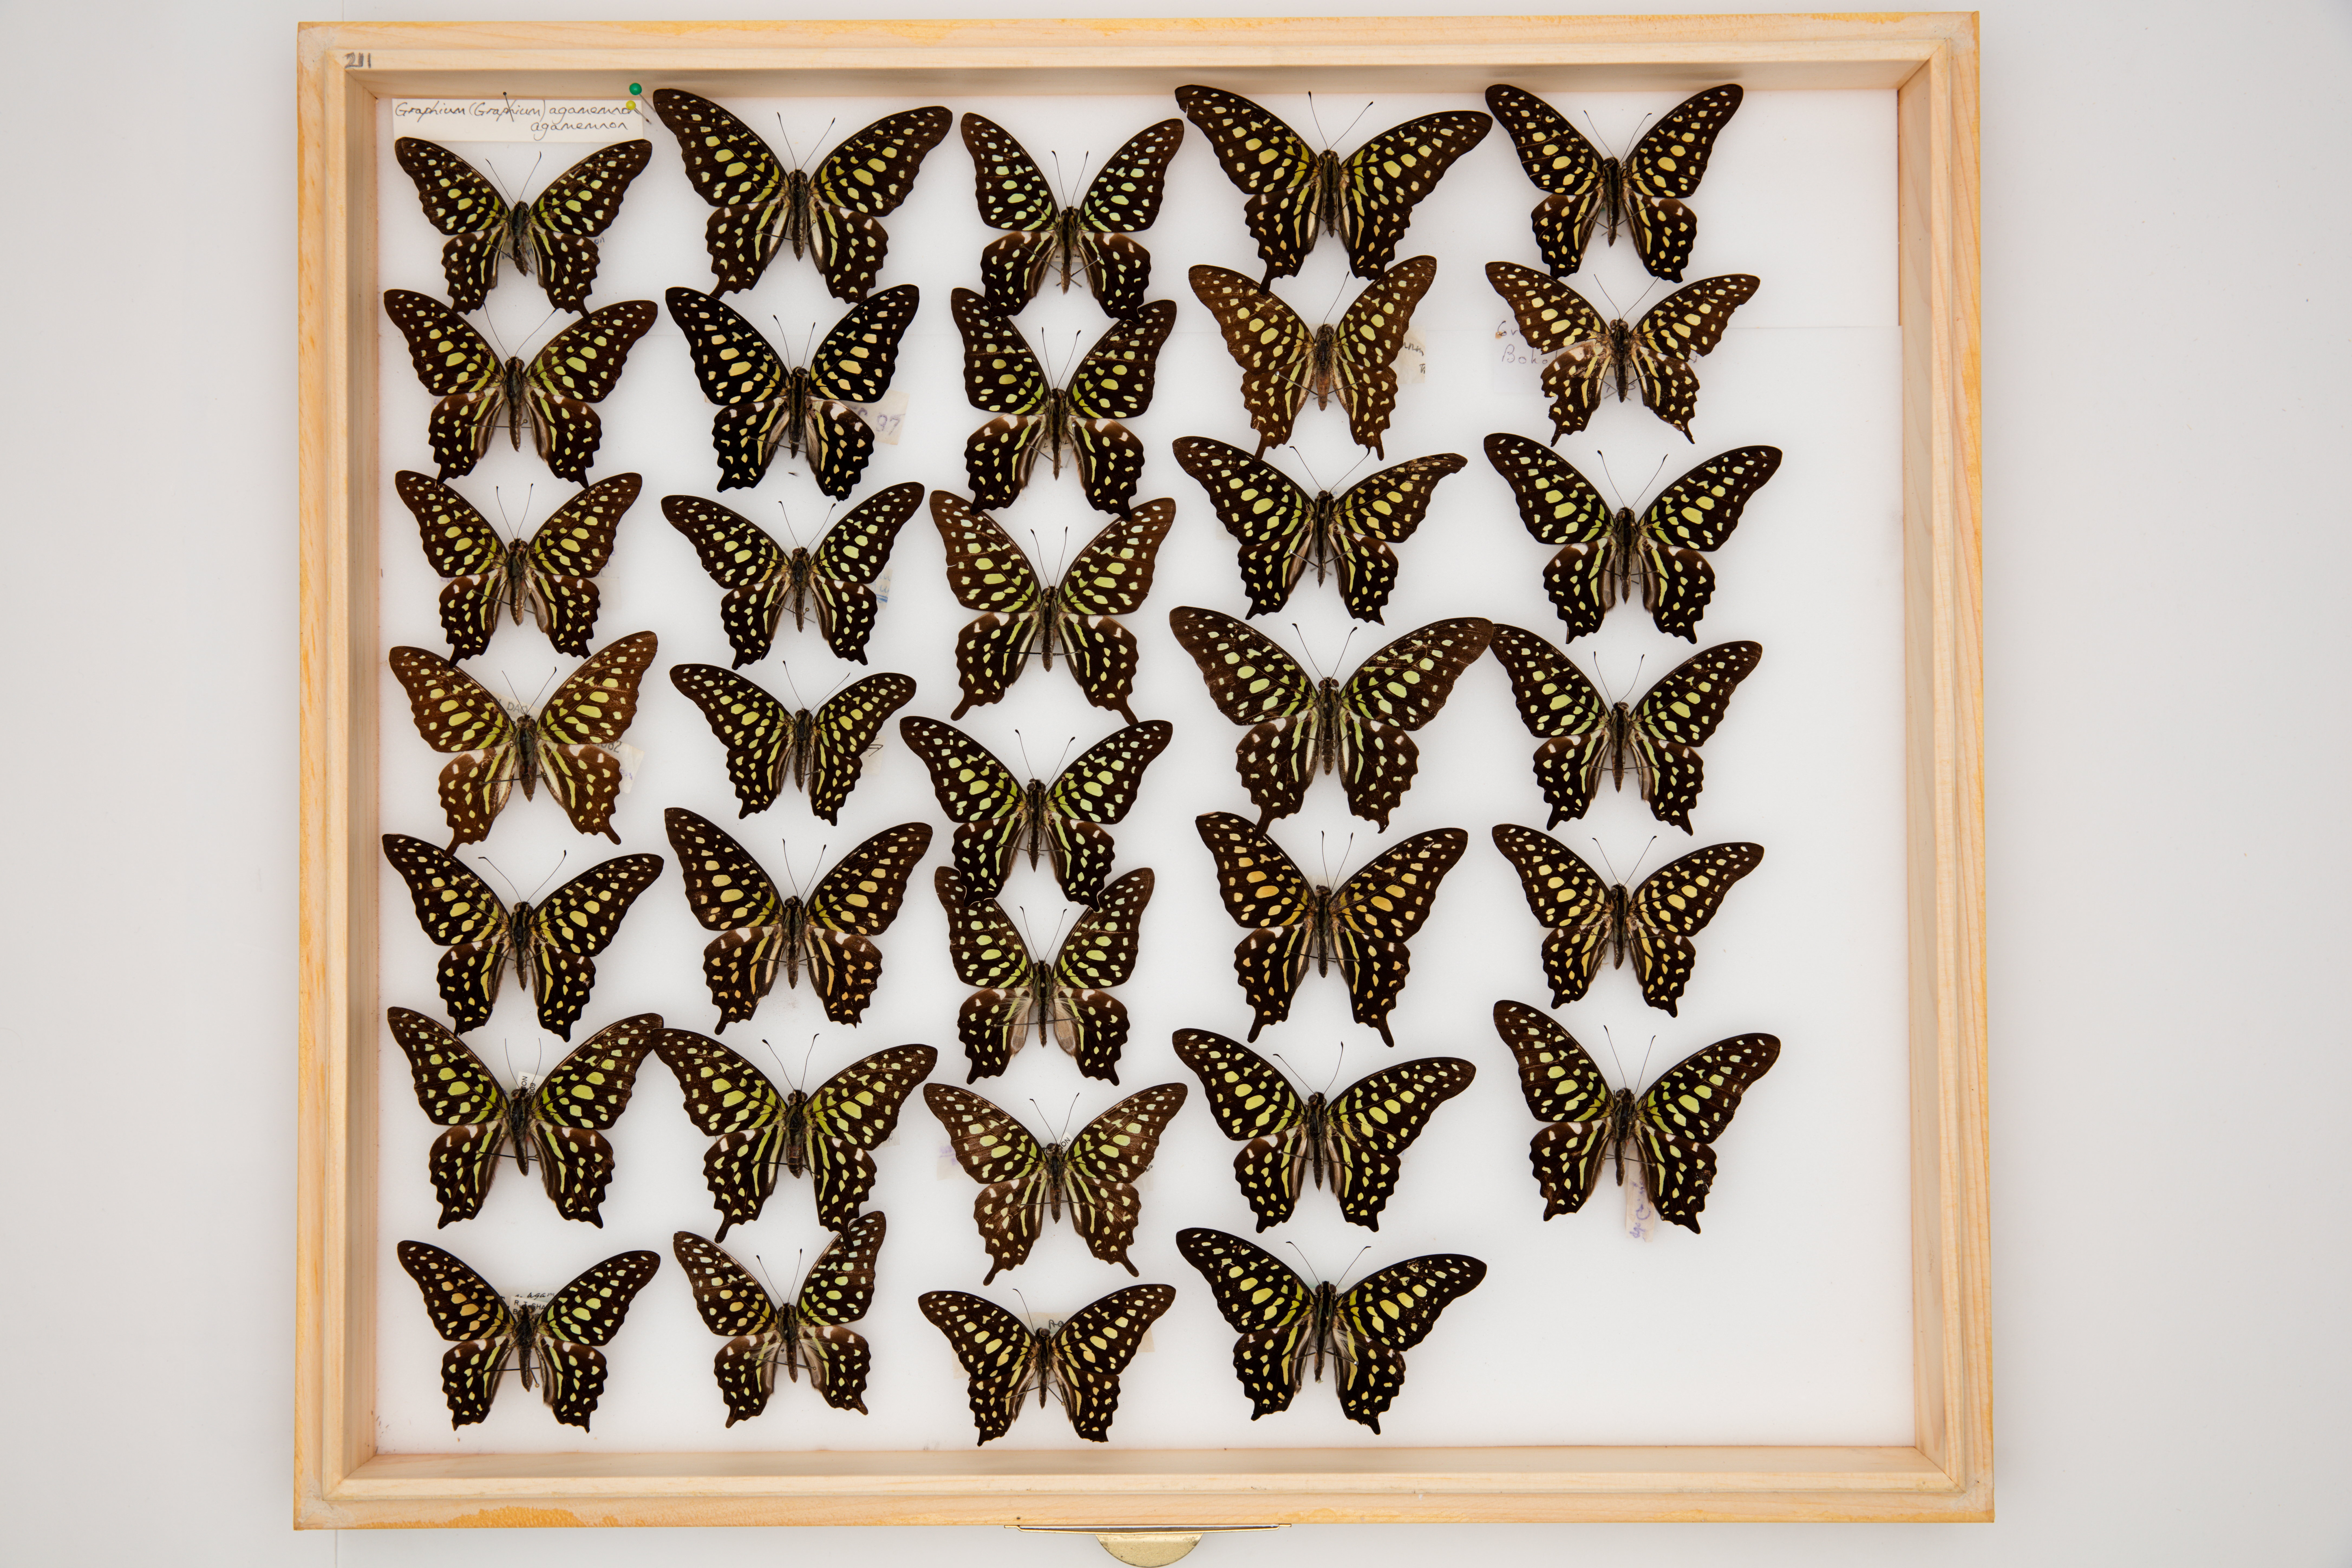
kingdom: Animalia
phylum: Arthropoda
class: Insecta
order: Lepidoptera
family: Papilionidae
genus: Graphium
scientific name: Graphium agamemnon
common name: Tailed jay
